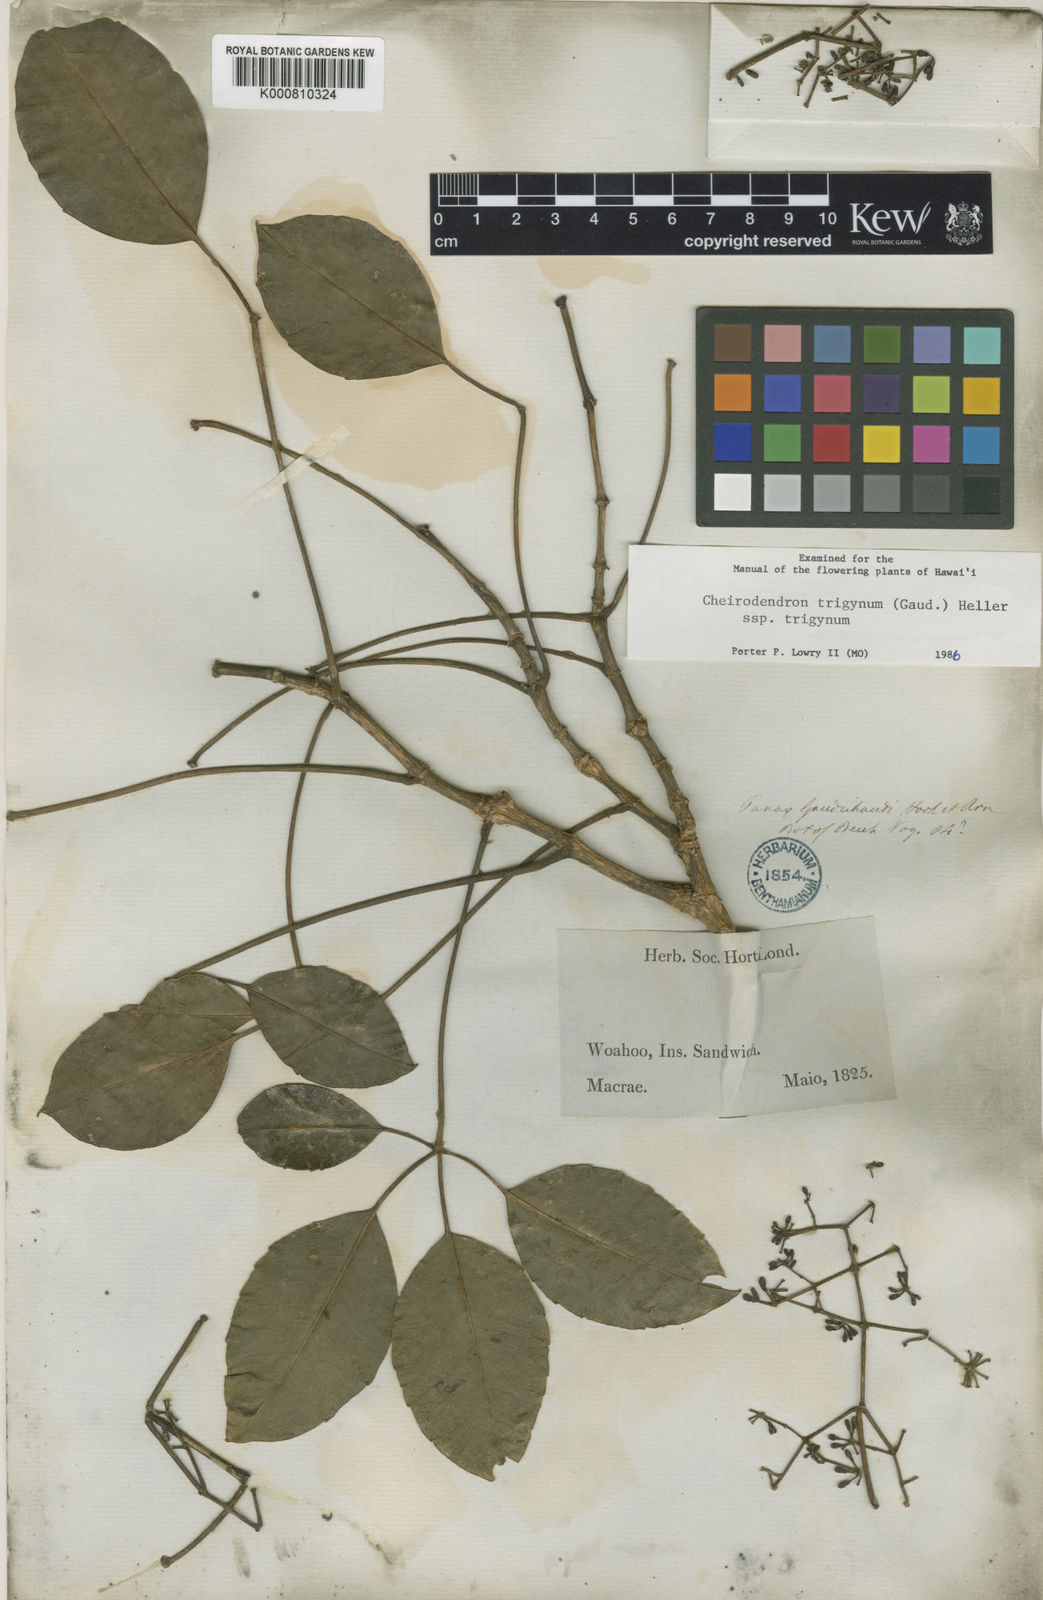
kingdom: Plantae
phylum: Tracheophyta
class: Magnoliopsida
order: Apiales
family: Araliaceae
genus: Cheirodendron
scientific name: Cheirodendron trigynum
